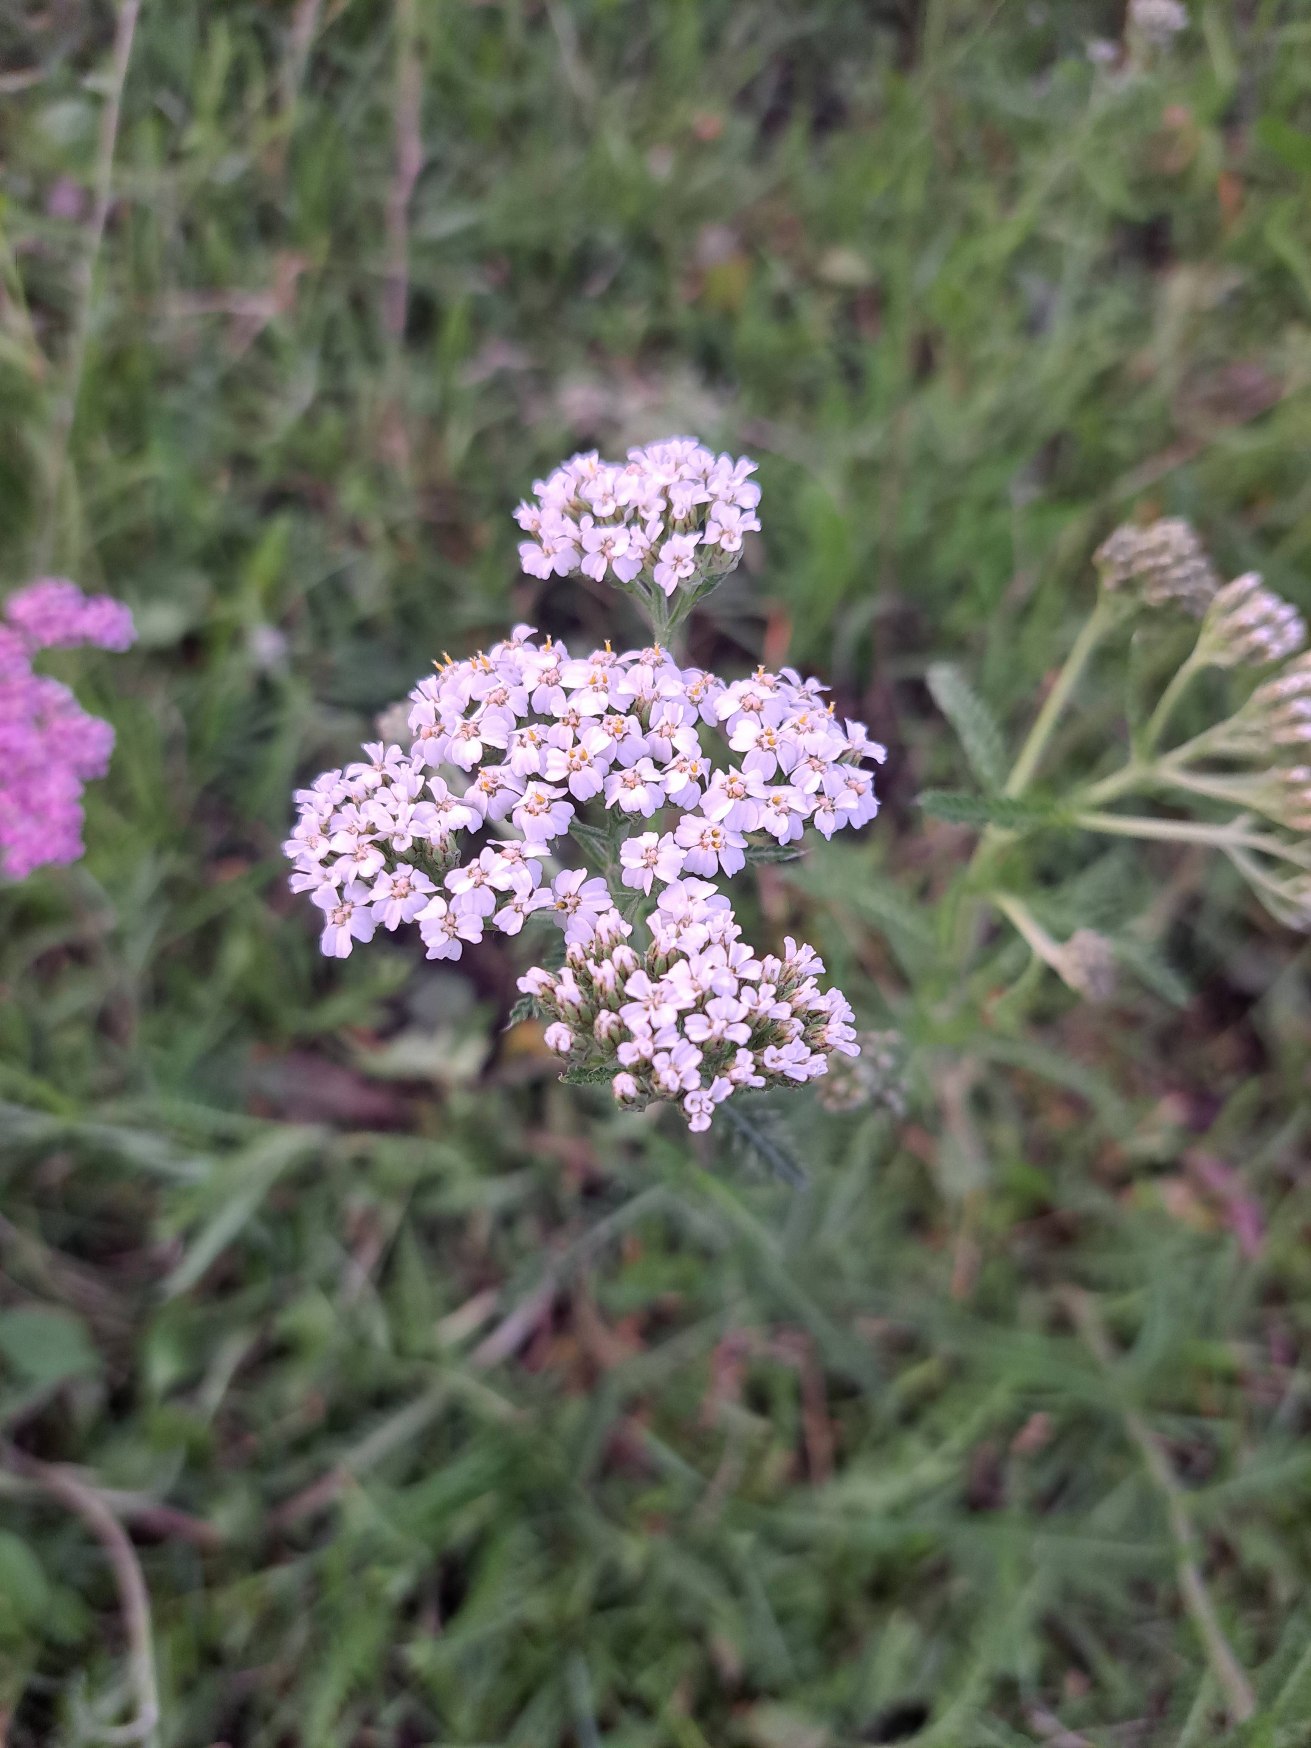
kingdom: Plantae
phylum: Tracheophyta
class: Magnoliopsida
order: Asterales
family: Asteraceae
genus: Achillea
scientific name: Achillea millefolium
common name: Almindelig røllike
